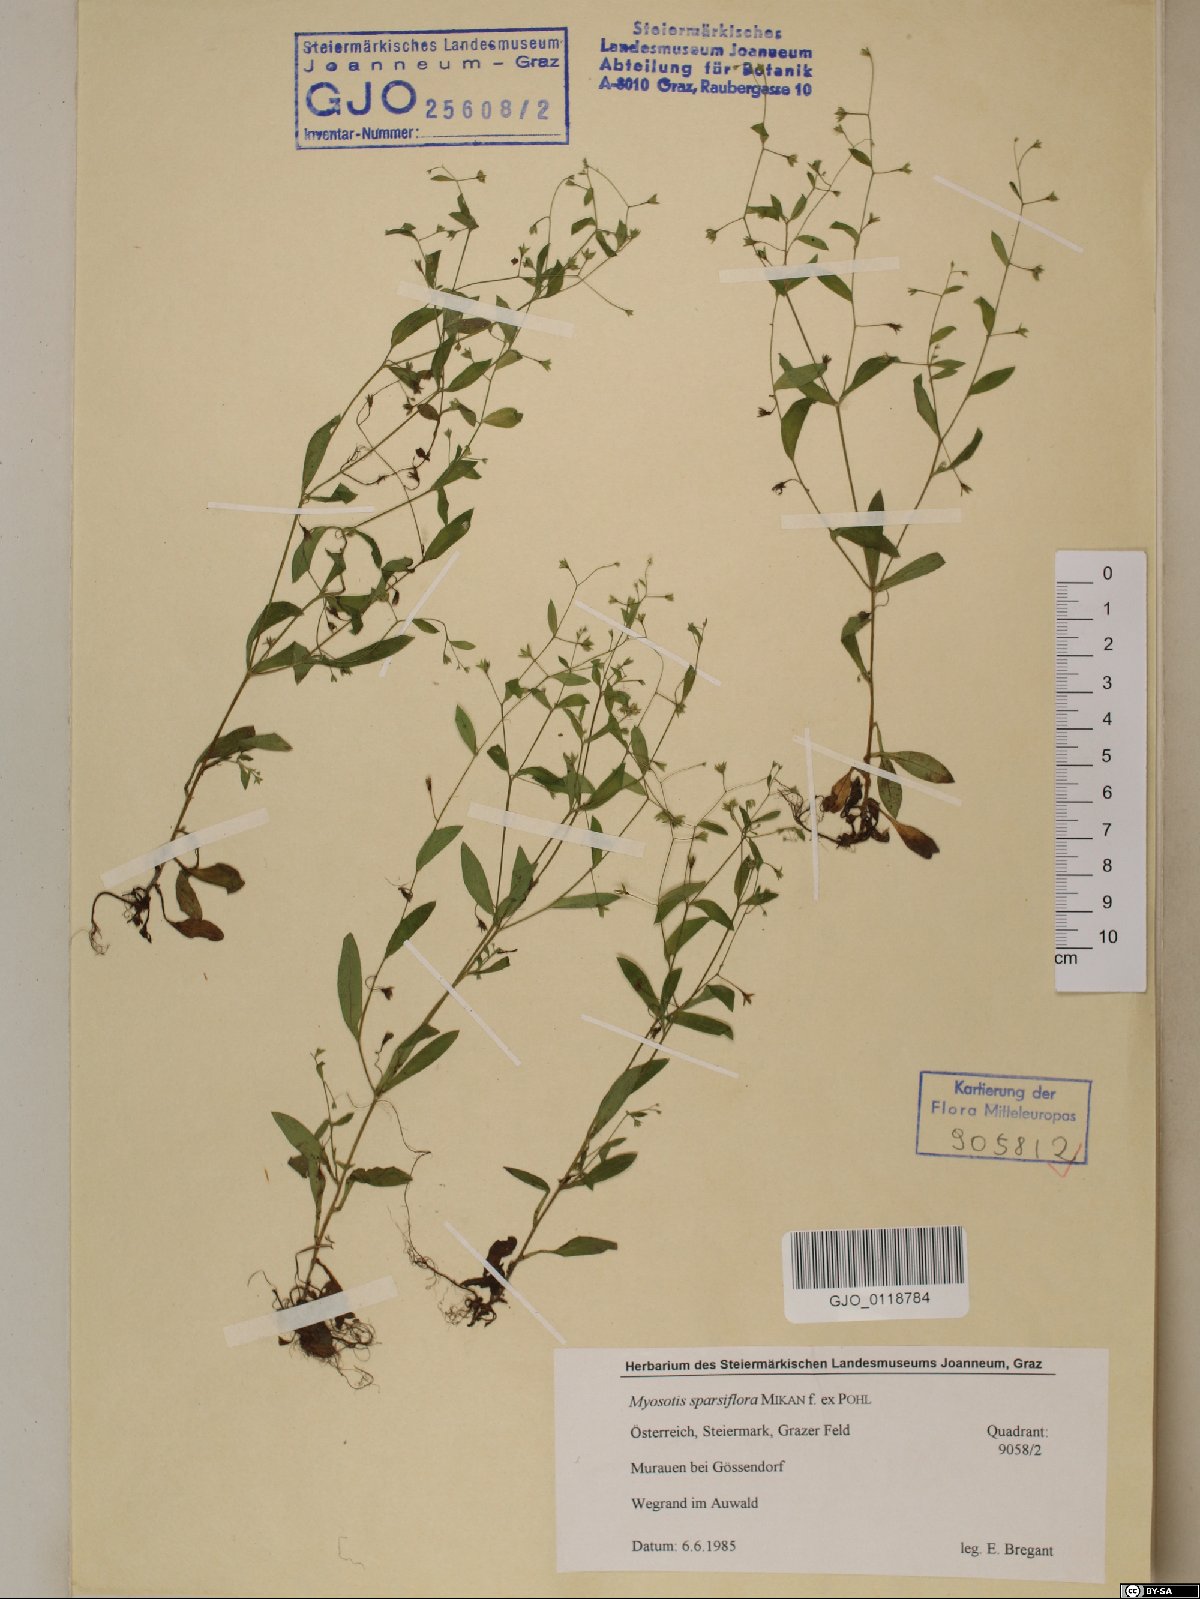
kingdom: Plantae
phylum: Tracheophyta
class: Magnoliopsida
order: Boraginales
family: Boraginaceae
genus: Myosotis
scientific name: Myosotis sparsiflora
